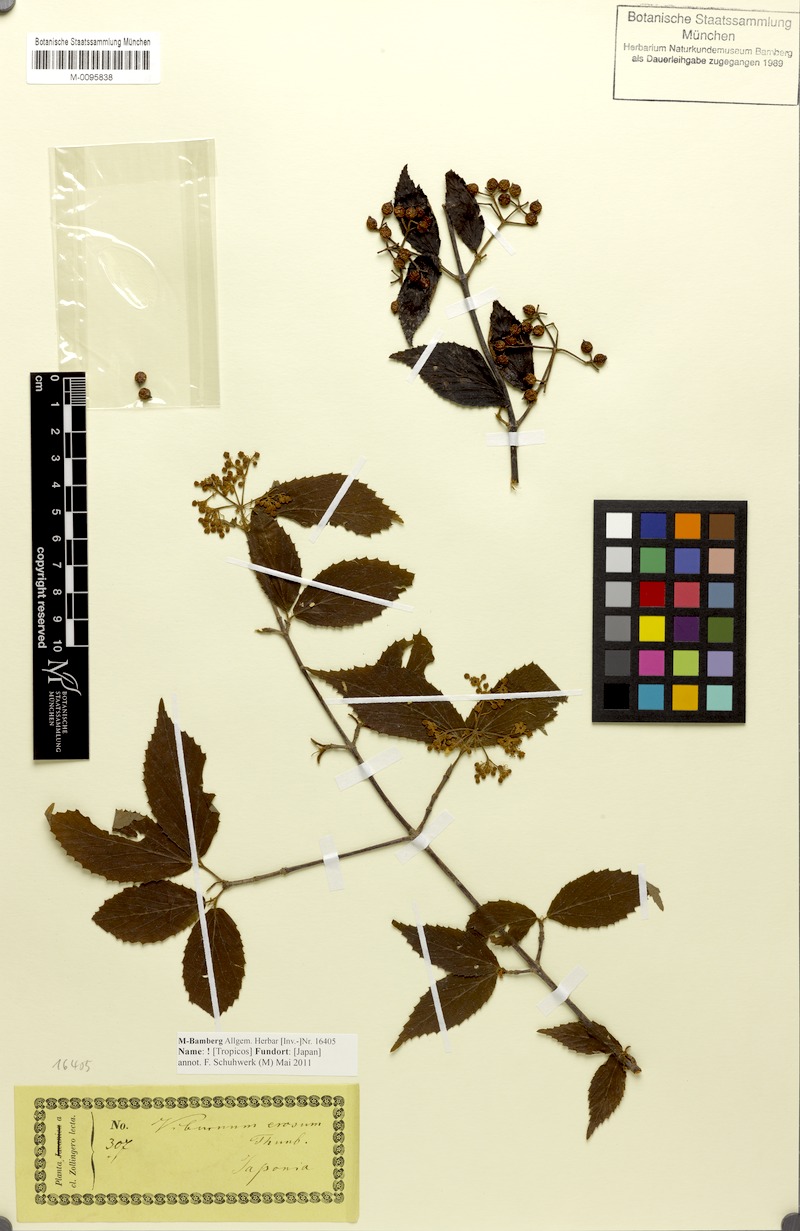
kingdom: Plantae
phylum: Tracheophyta
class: Magnoliopsida
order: Dipsacales
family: Viburnaceae
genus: Viburnum
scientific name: Viburnum erosum
